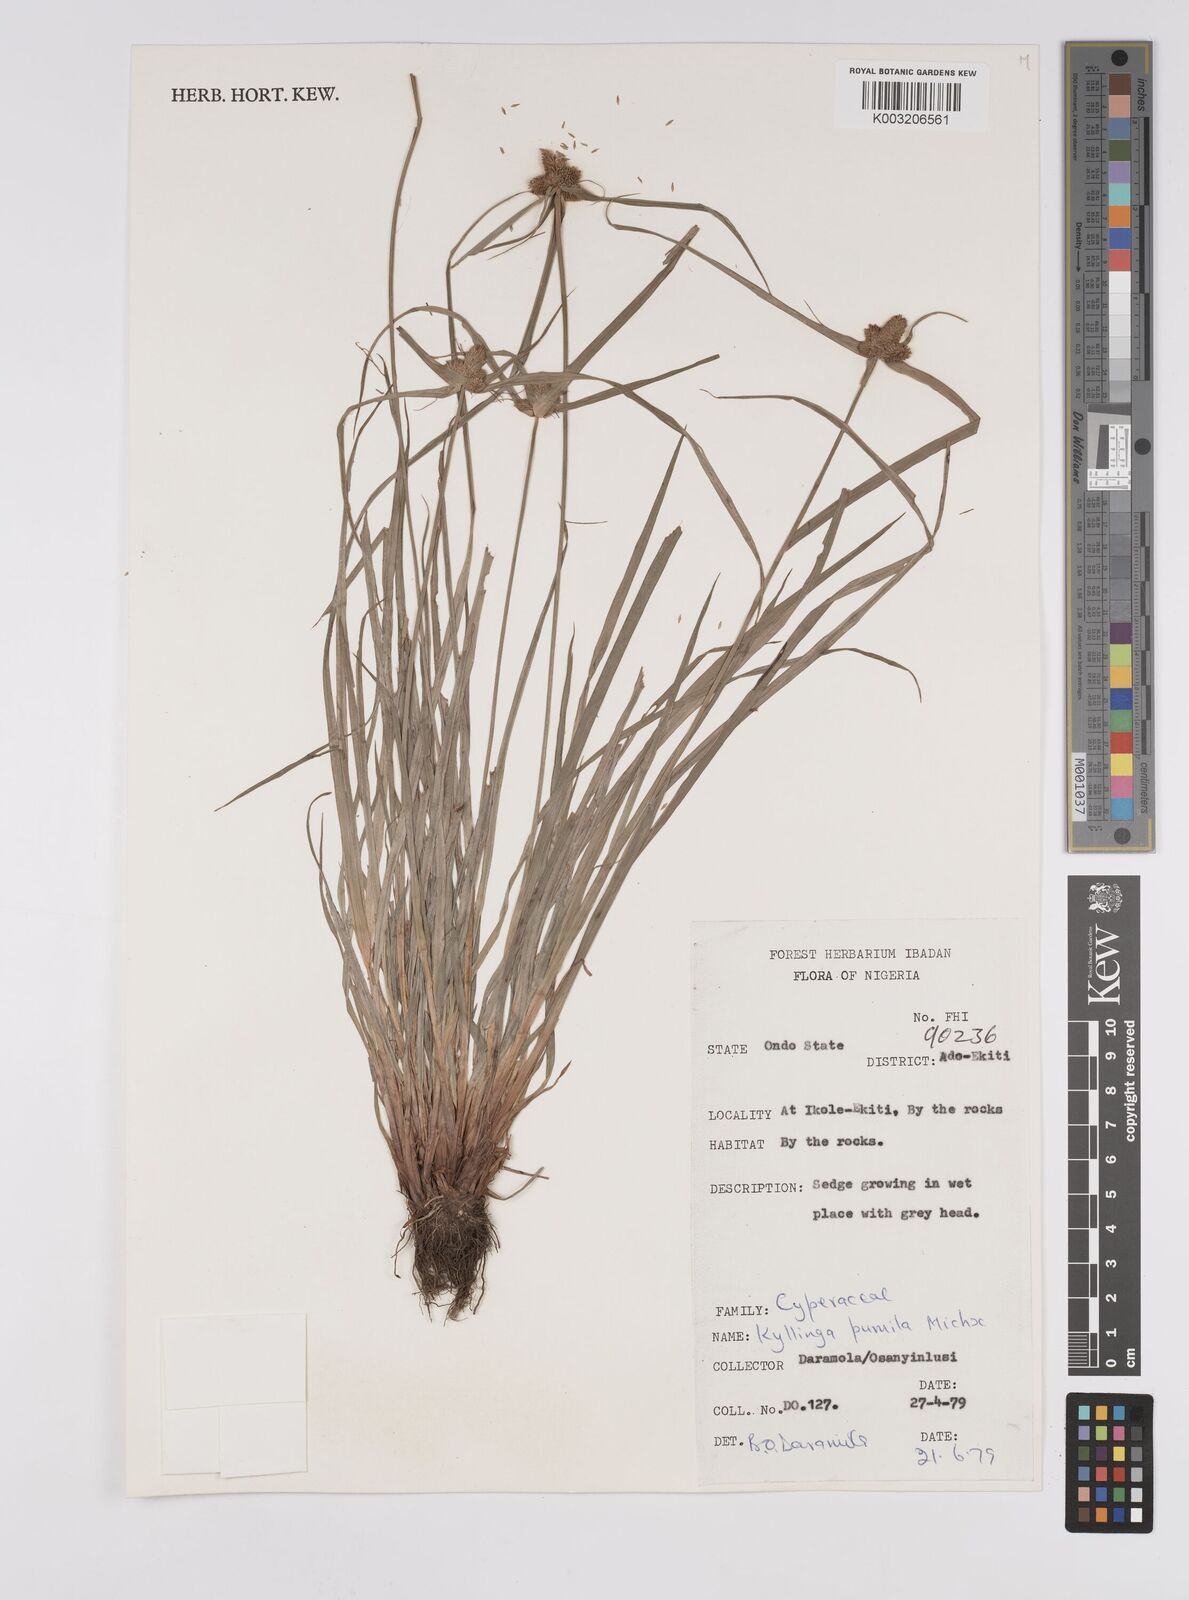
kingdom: Plantae
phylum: Tracheophyta
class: Liliopsida
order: Poales
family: Cyperaceae
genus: Cyperus
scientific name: Cyperus
